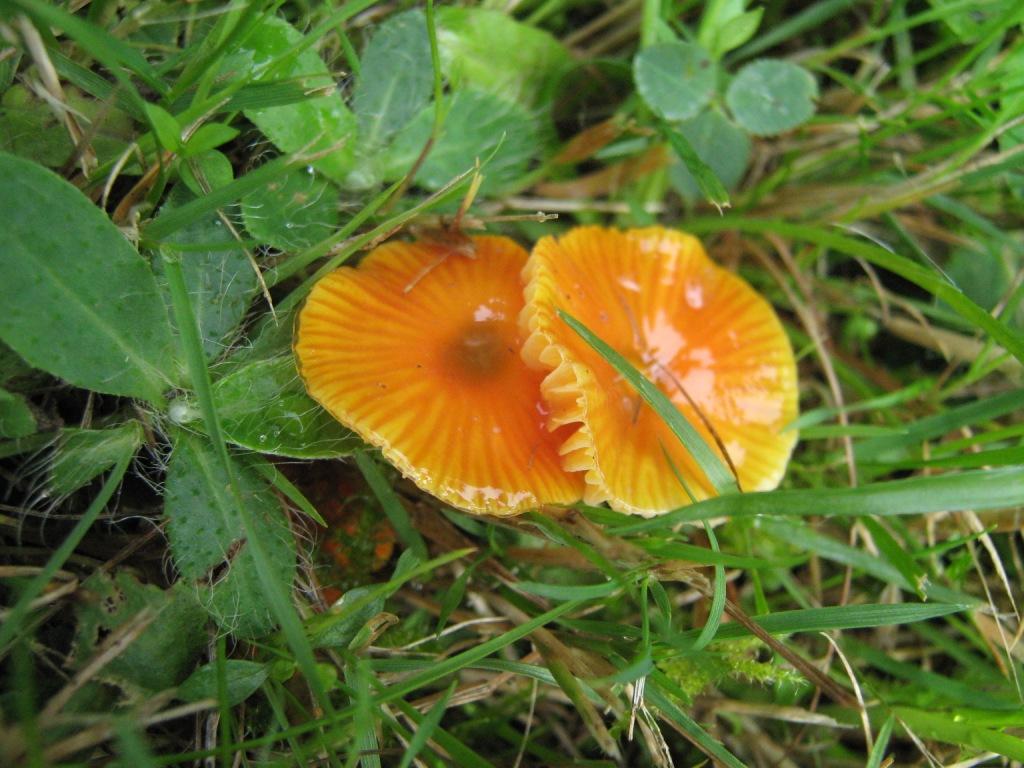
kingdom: Fungi
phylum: Basidiomycota
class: Agaricomycetes
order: Agaricales
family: Hygrophoraceae
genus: Hygrocybe
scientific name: Hygrocybe glutinipes
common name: slimstokket vokshat
